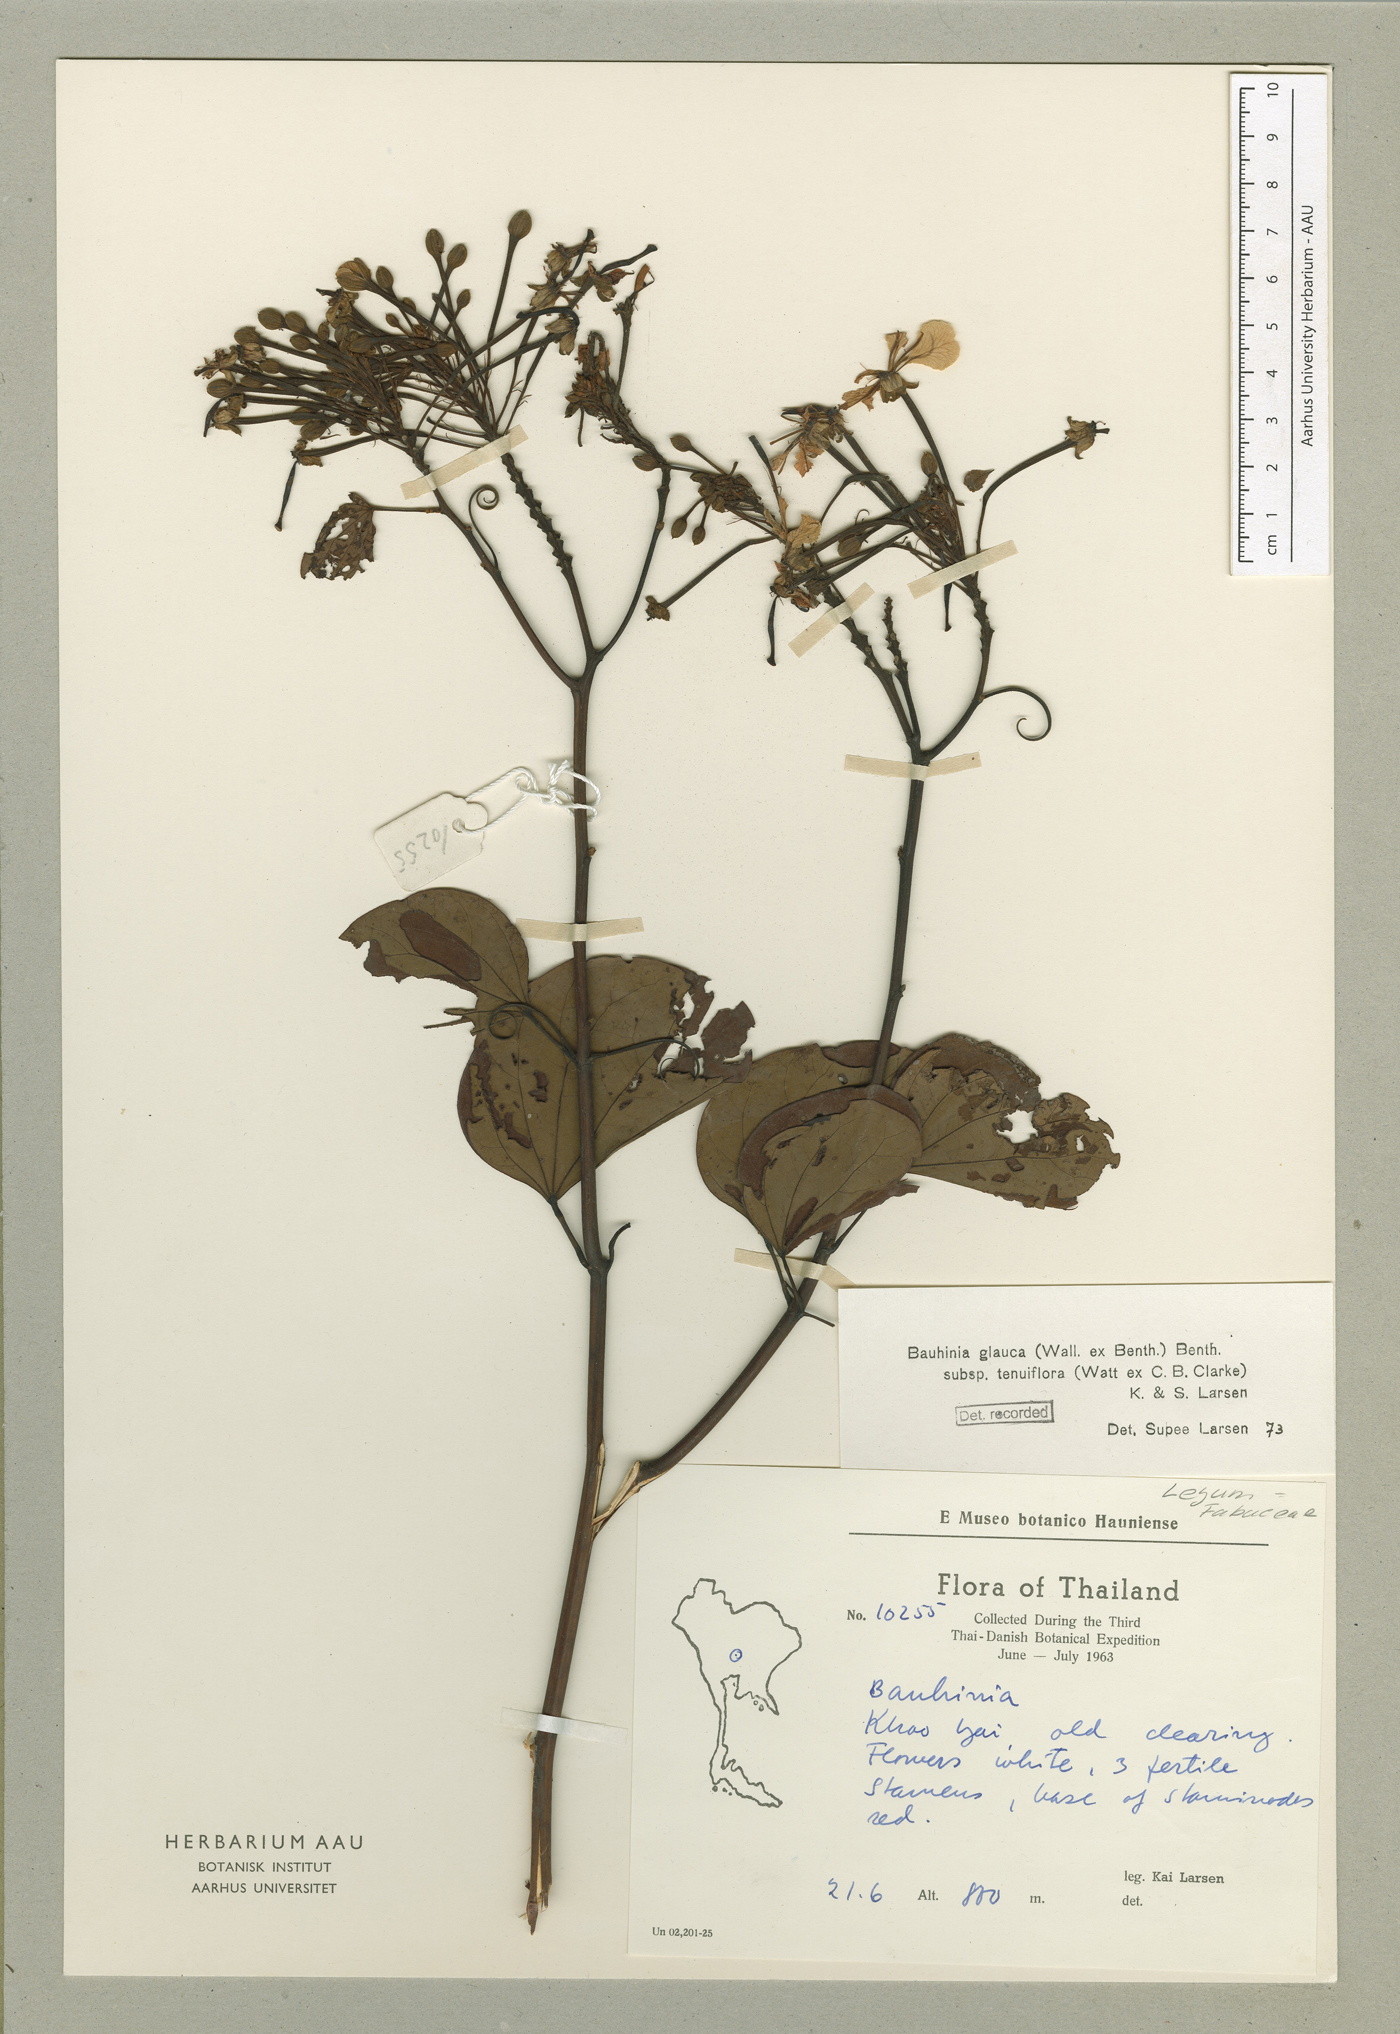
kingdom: Plantae
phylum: Tracheophyta
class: Magnoliopsida
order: Fabales
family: Fabaceae
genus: Cheniella
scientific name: Cheniella tenuiflora
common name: Bauhinia
